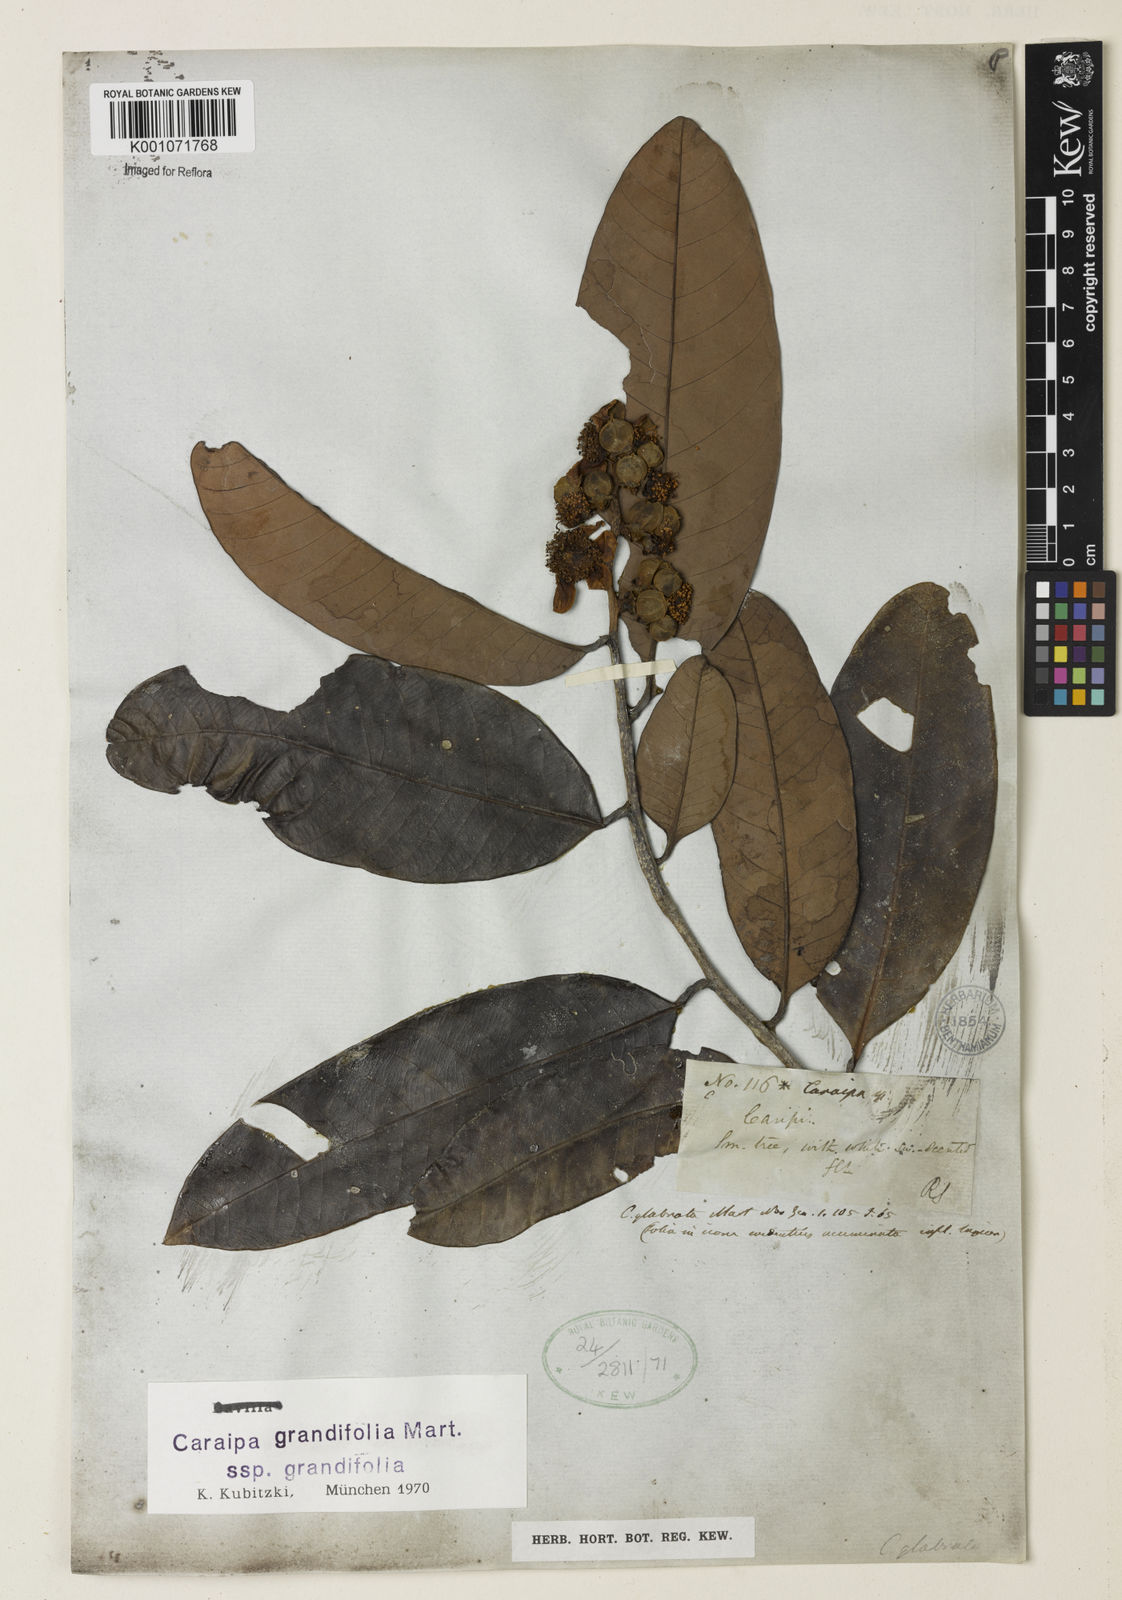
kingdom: Plantae
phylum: Tracheophyta
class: Magnoliopsida
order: Malpighiales
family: Calophyllaceae
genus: Caraipa
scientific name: Caraipa grandifolia
